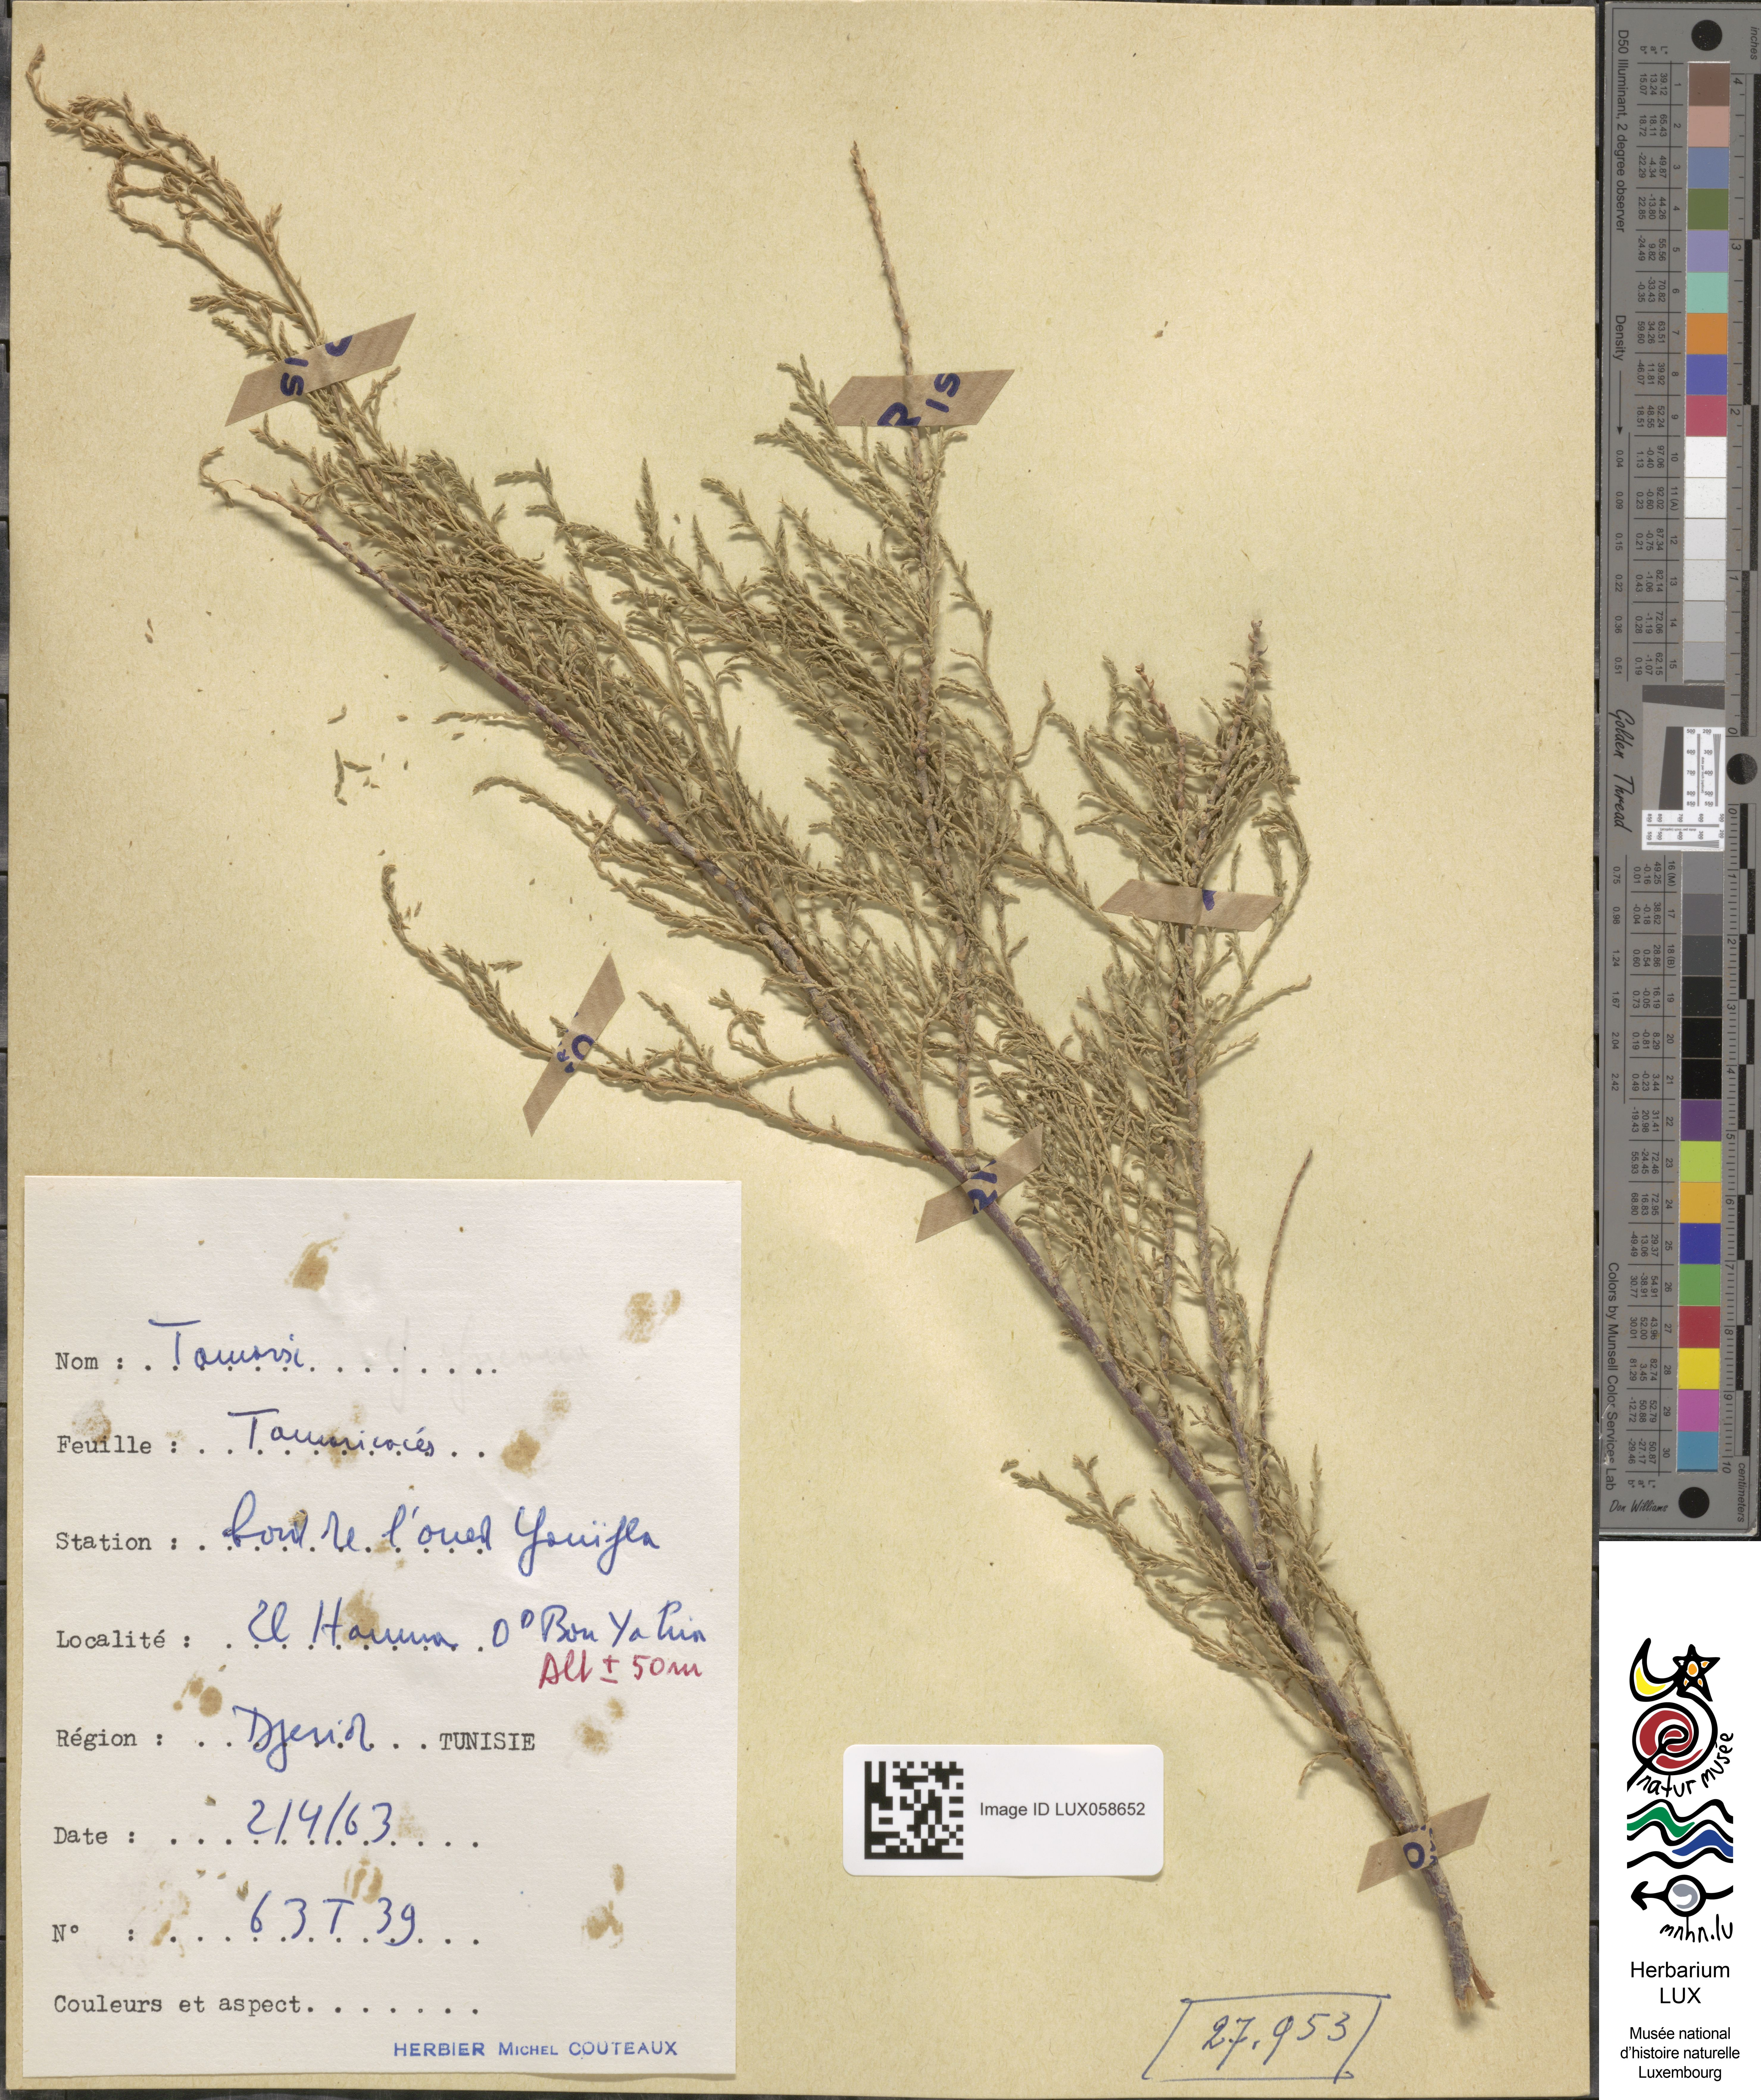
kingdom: Plantae
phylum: Tracheophyta
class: Magnoliopsida
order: Caryophyllales
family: Tamaricaceae
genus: Tamarix
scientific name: Tamarix
